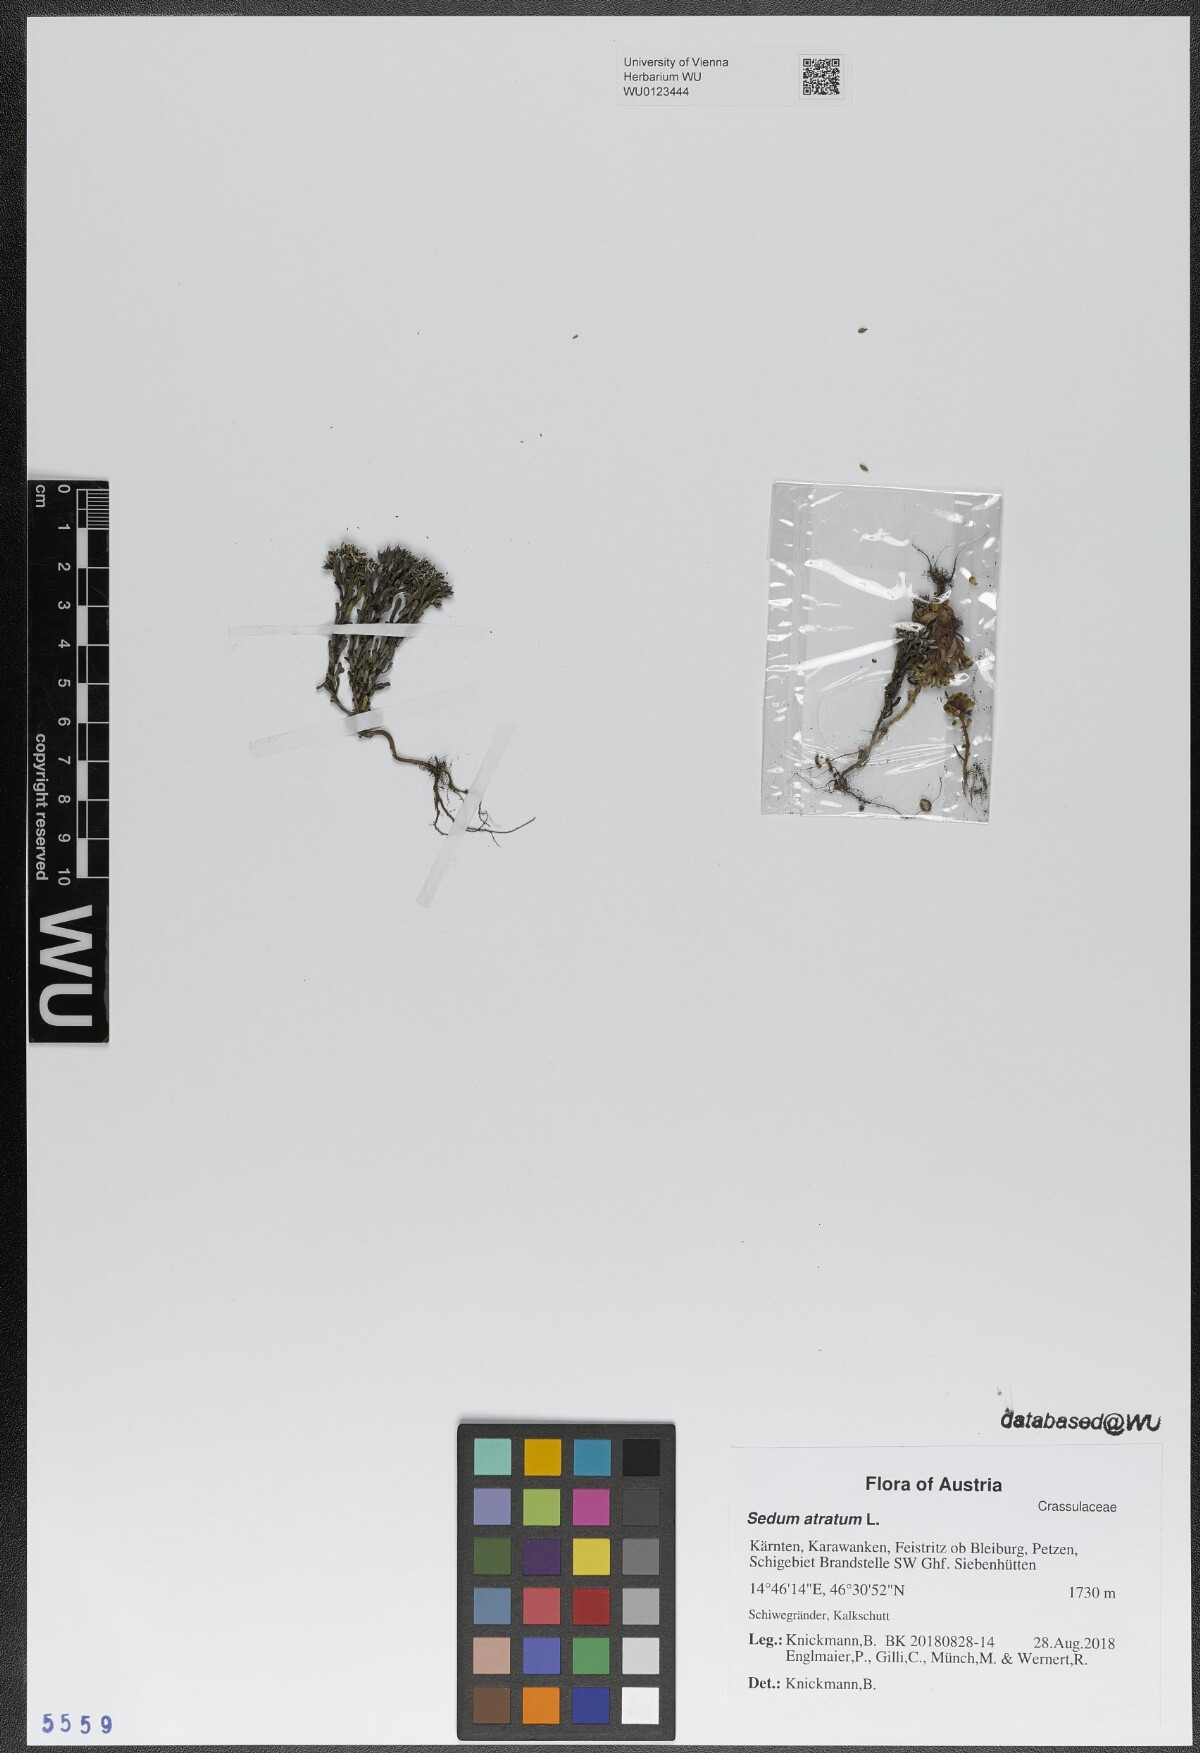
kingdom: Plantae
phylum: Tracheophyta
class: Magnoliopsida
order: Saxifragales
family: Crassulaceae
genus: Sedum
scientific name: Sedum atratum
